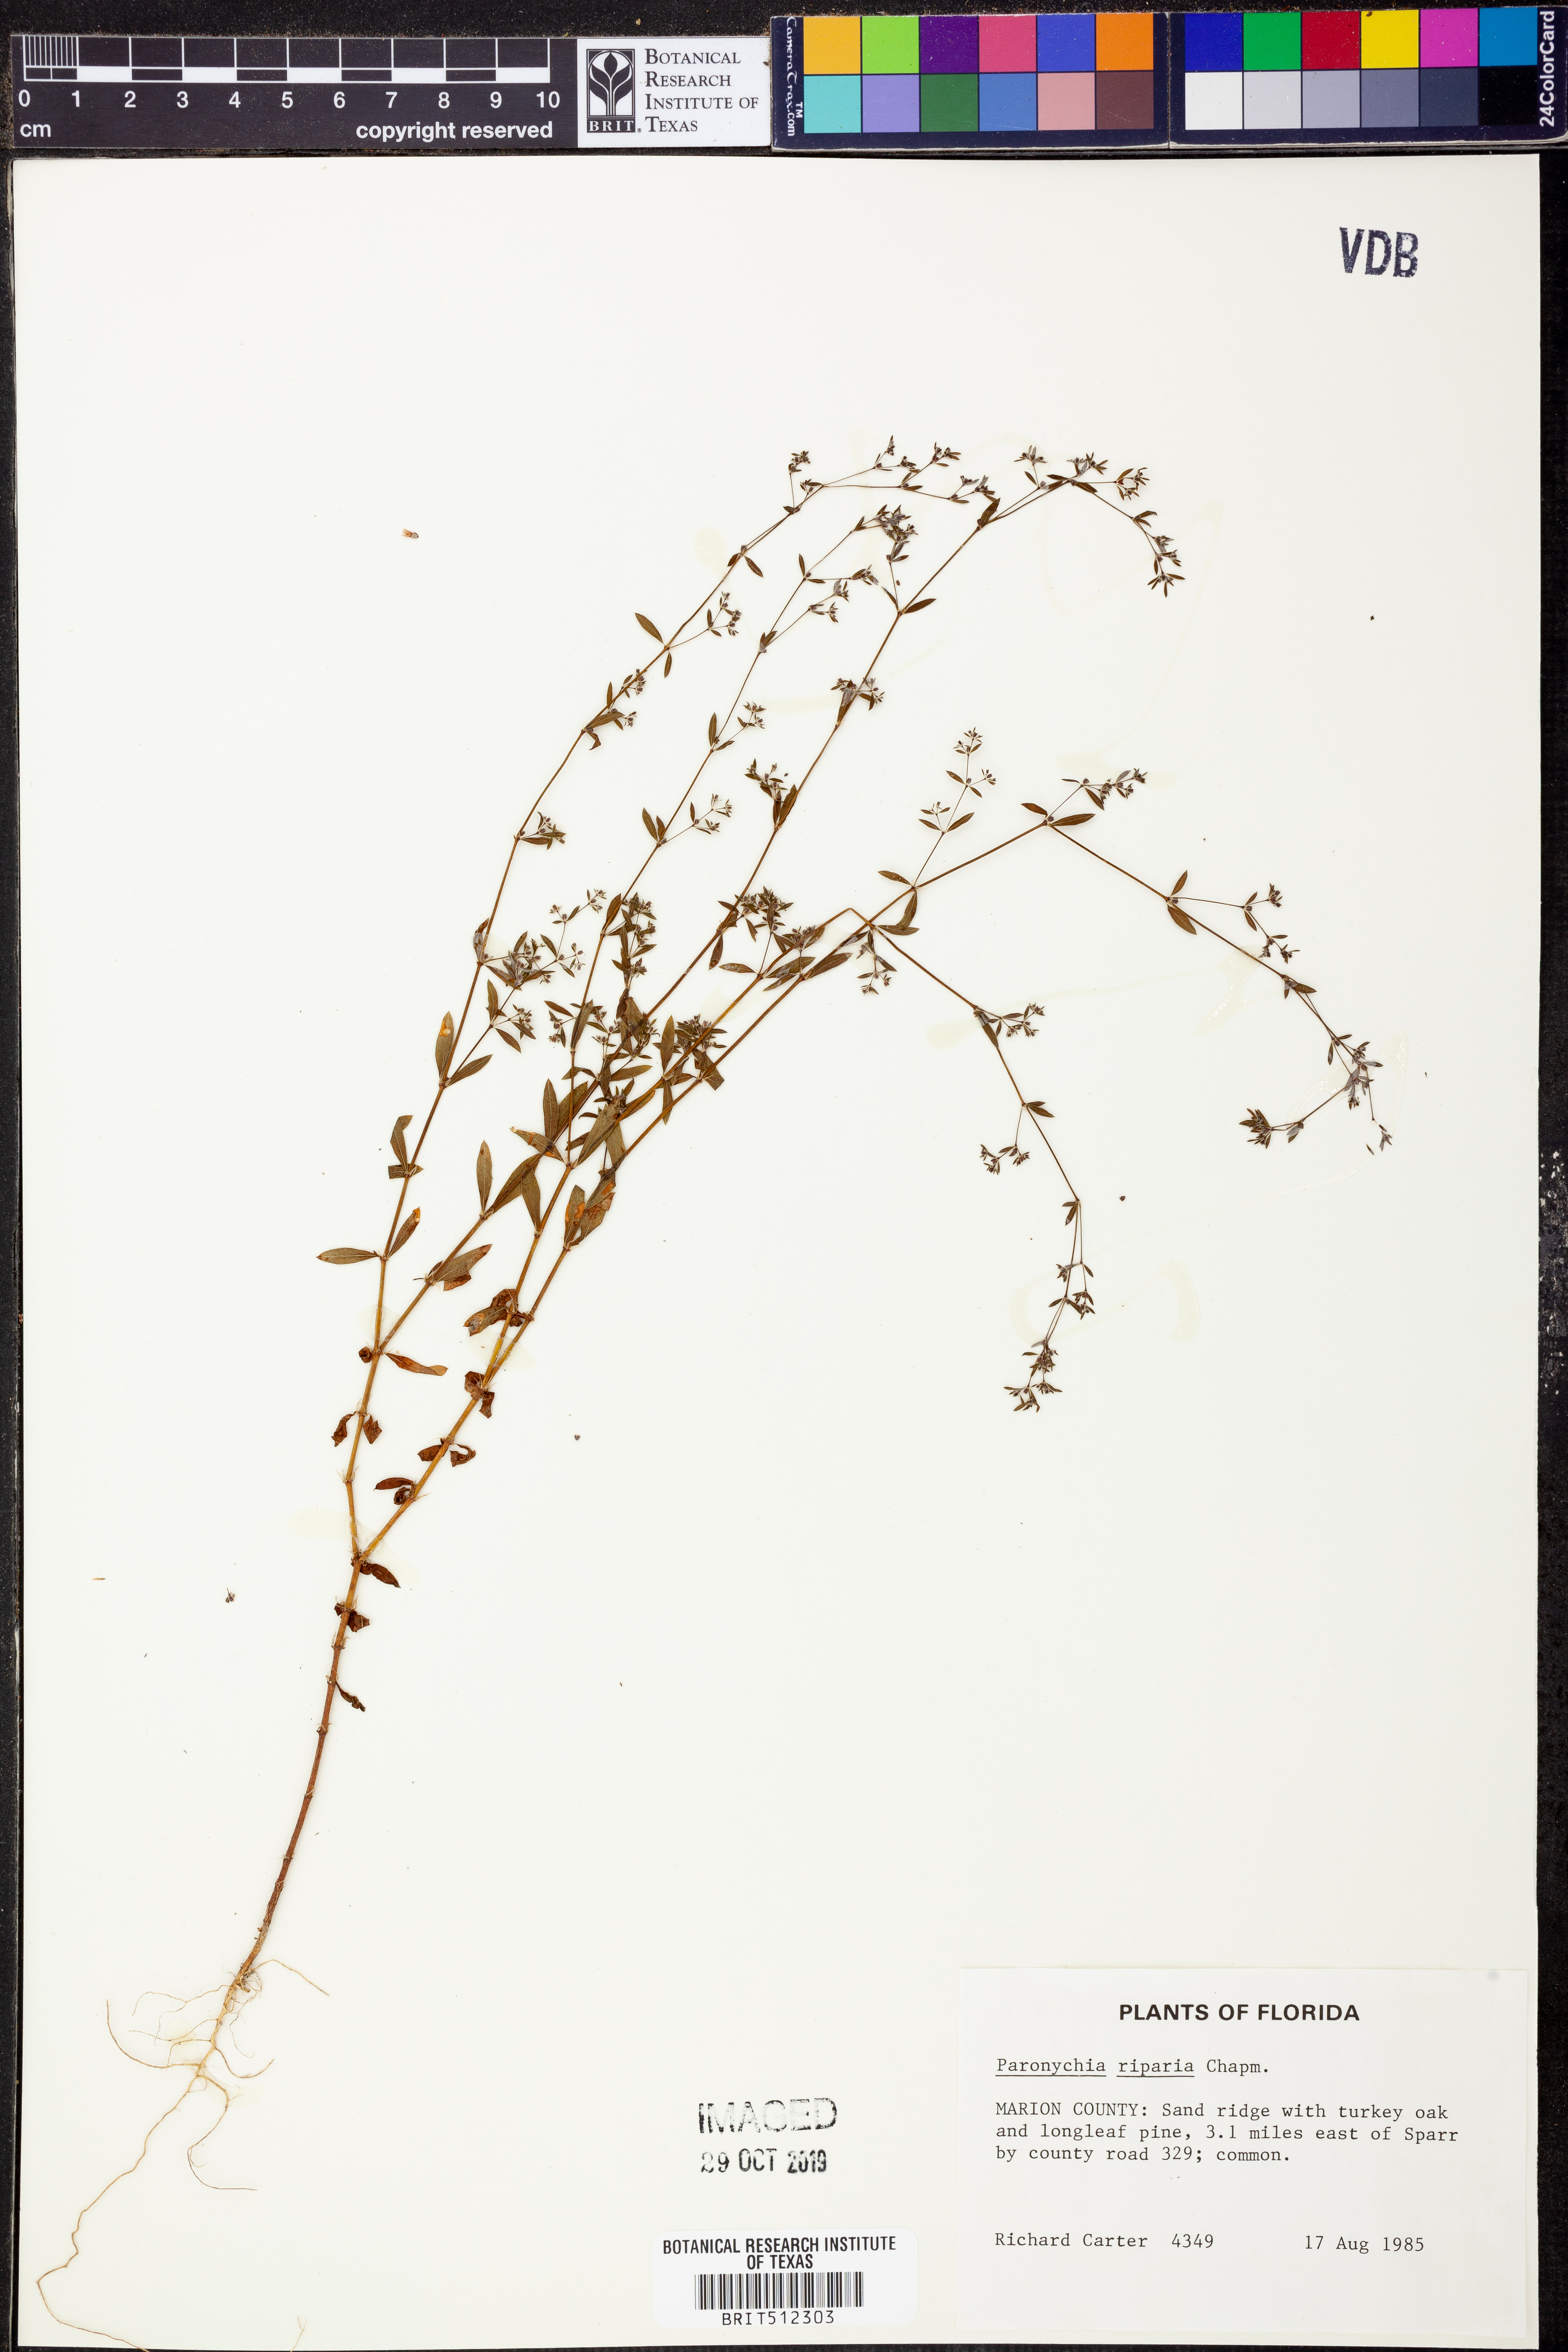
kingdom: Plantae
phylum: Tracheophyta
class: Magnoliopsida
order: Caryophyllales
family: Caryophyllaceae
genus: Paronychia
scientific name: Paronychia baldwinii
